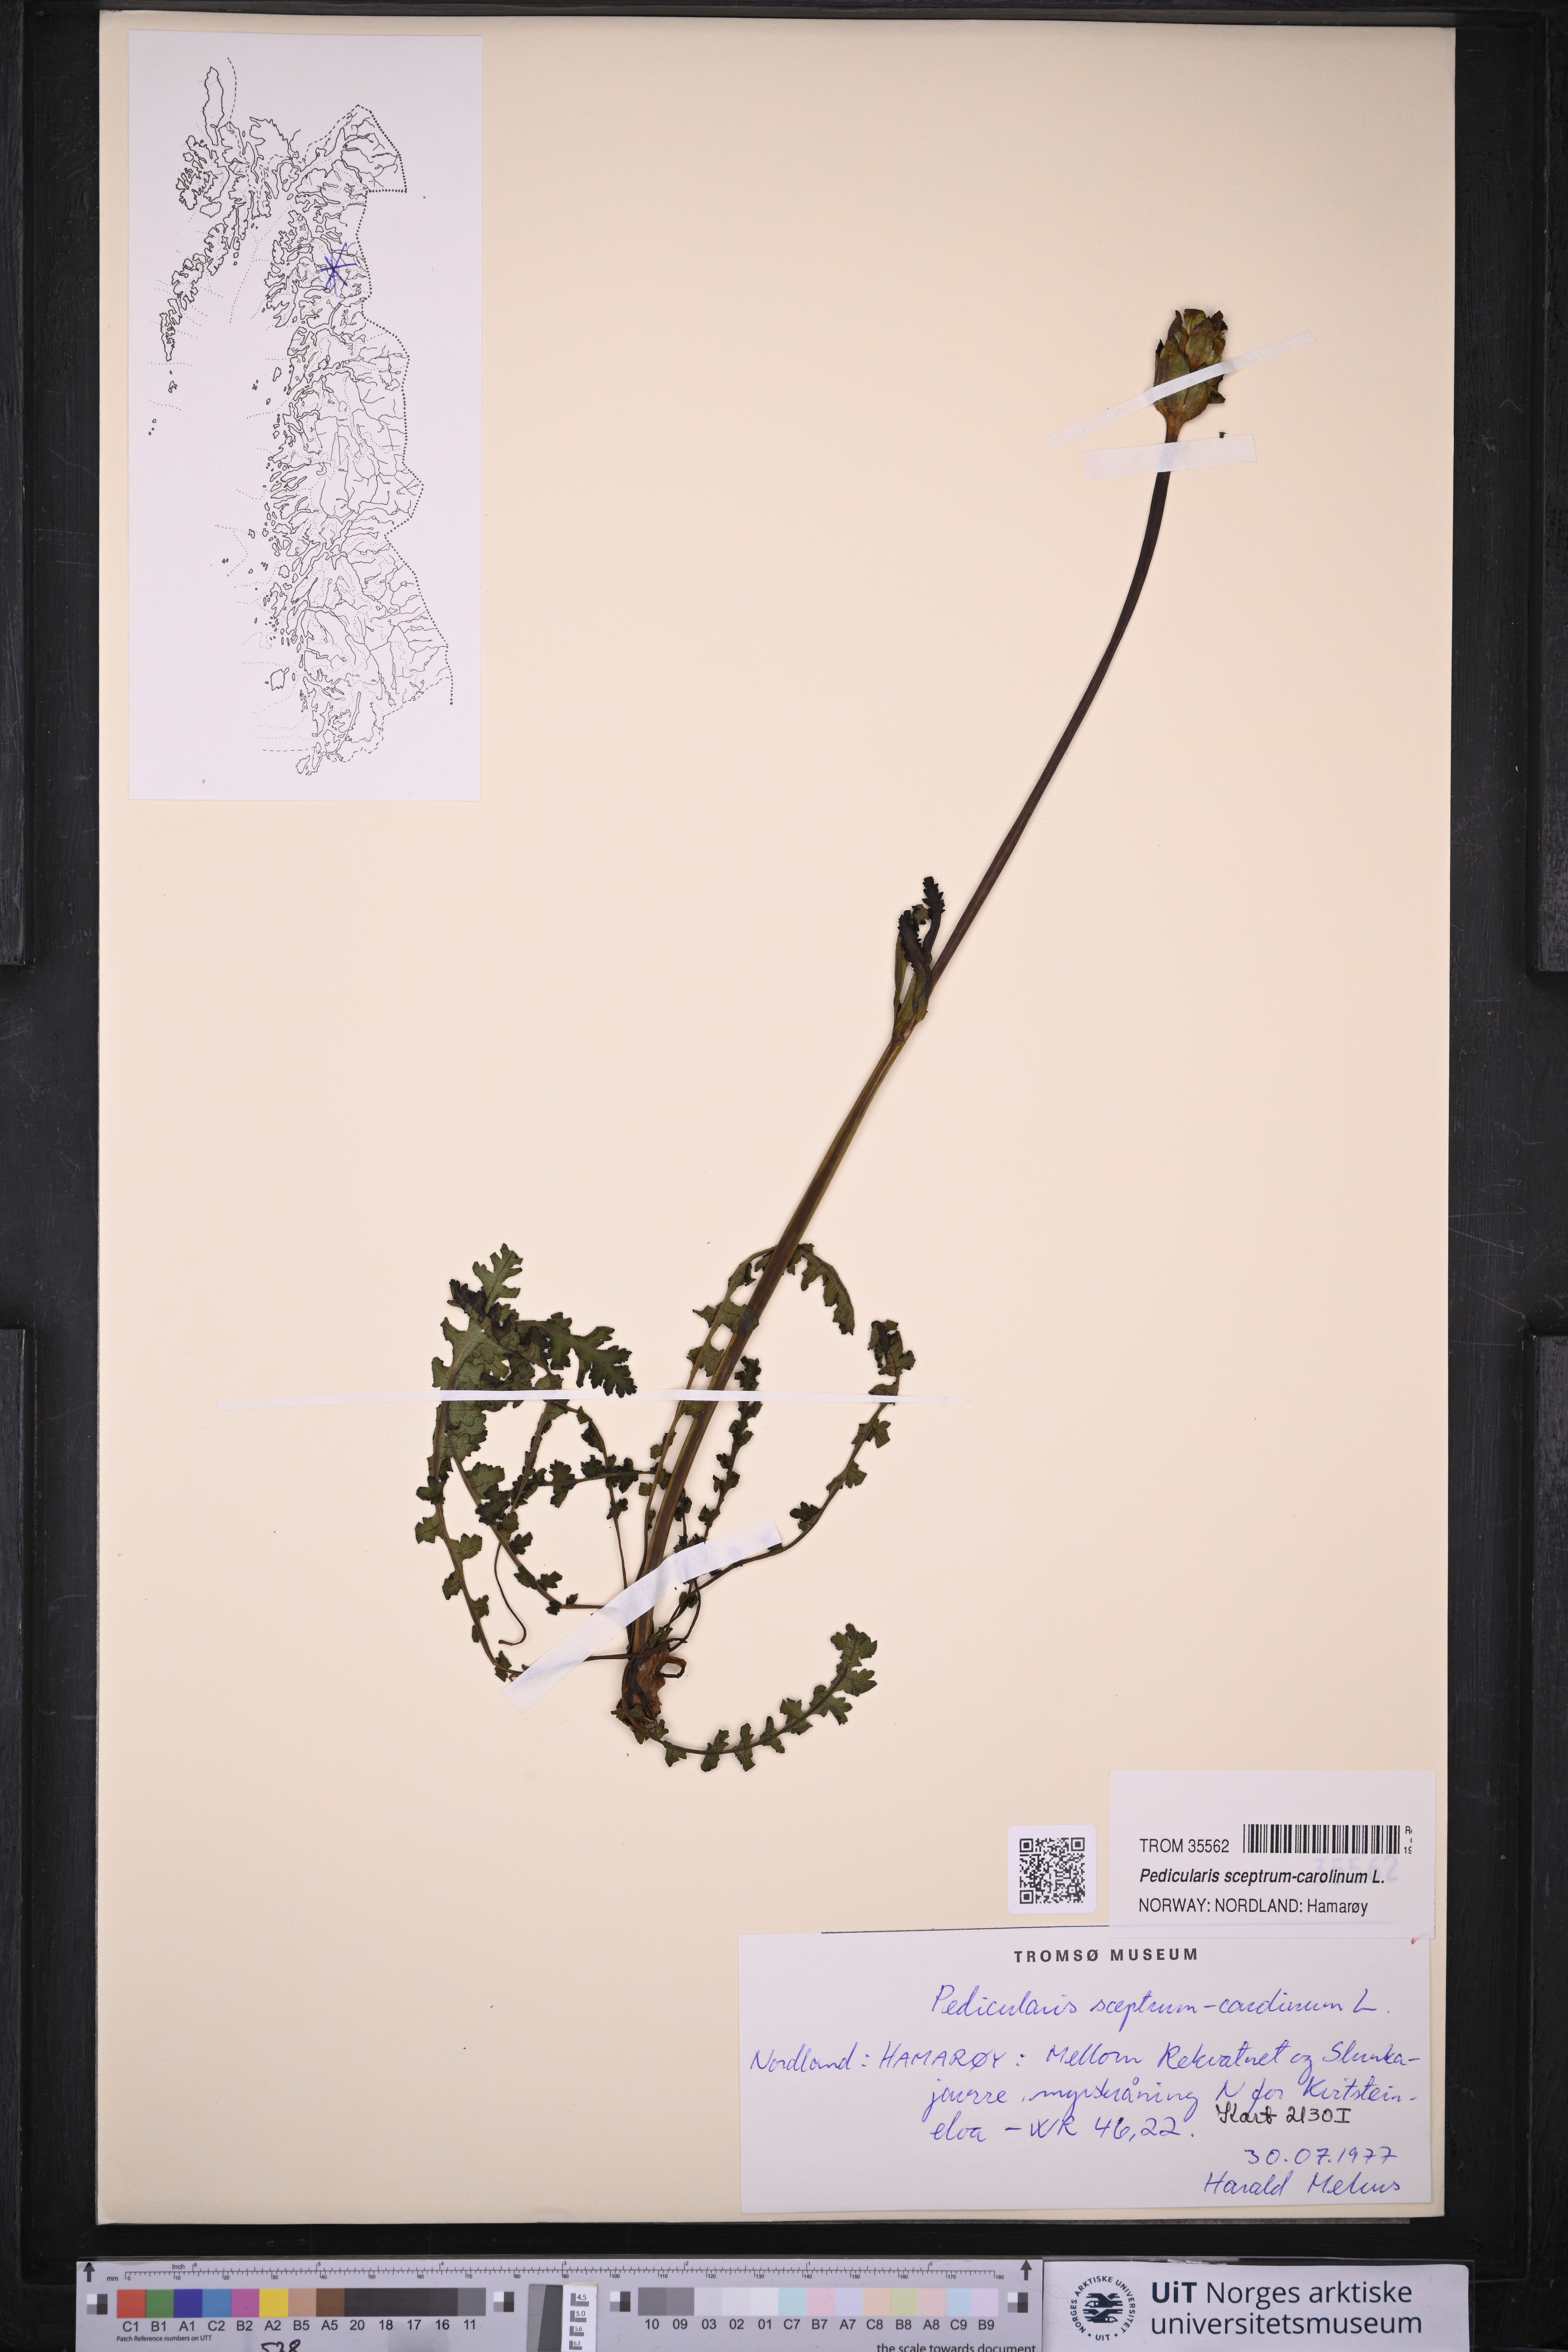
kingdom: Plantae
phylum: Tracheophyta
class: Magnoliopsida
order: Lamiales
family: Orobanchaceae
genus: Pedicularis
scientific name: Pedicularis sceptrum-carolinum
